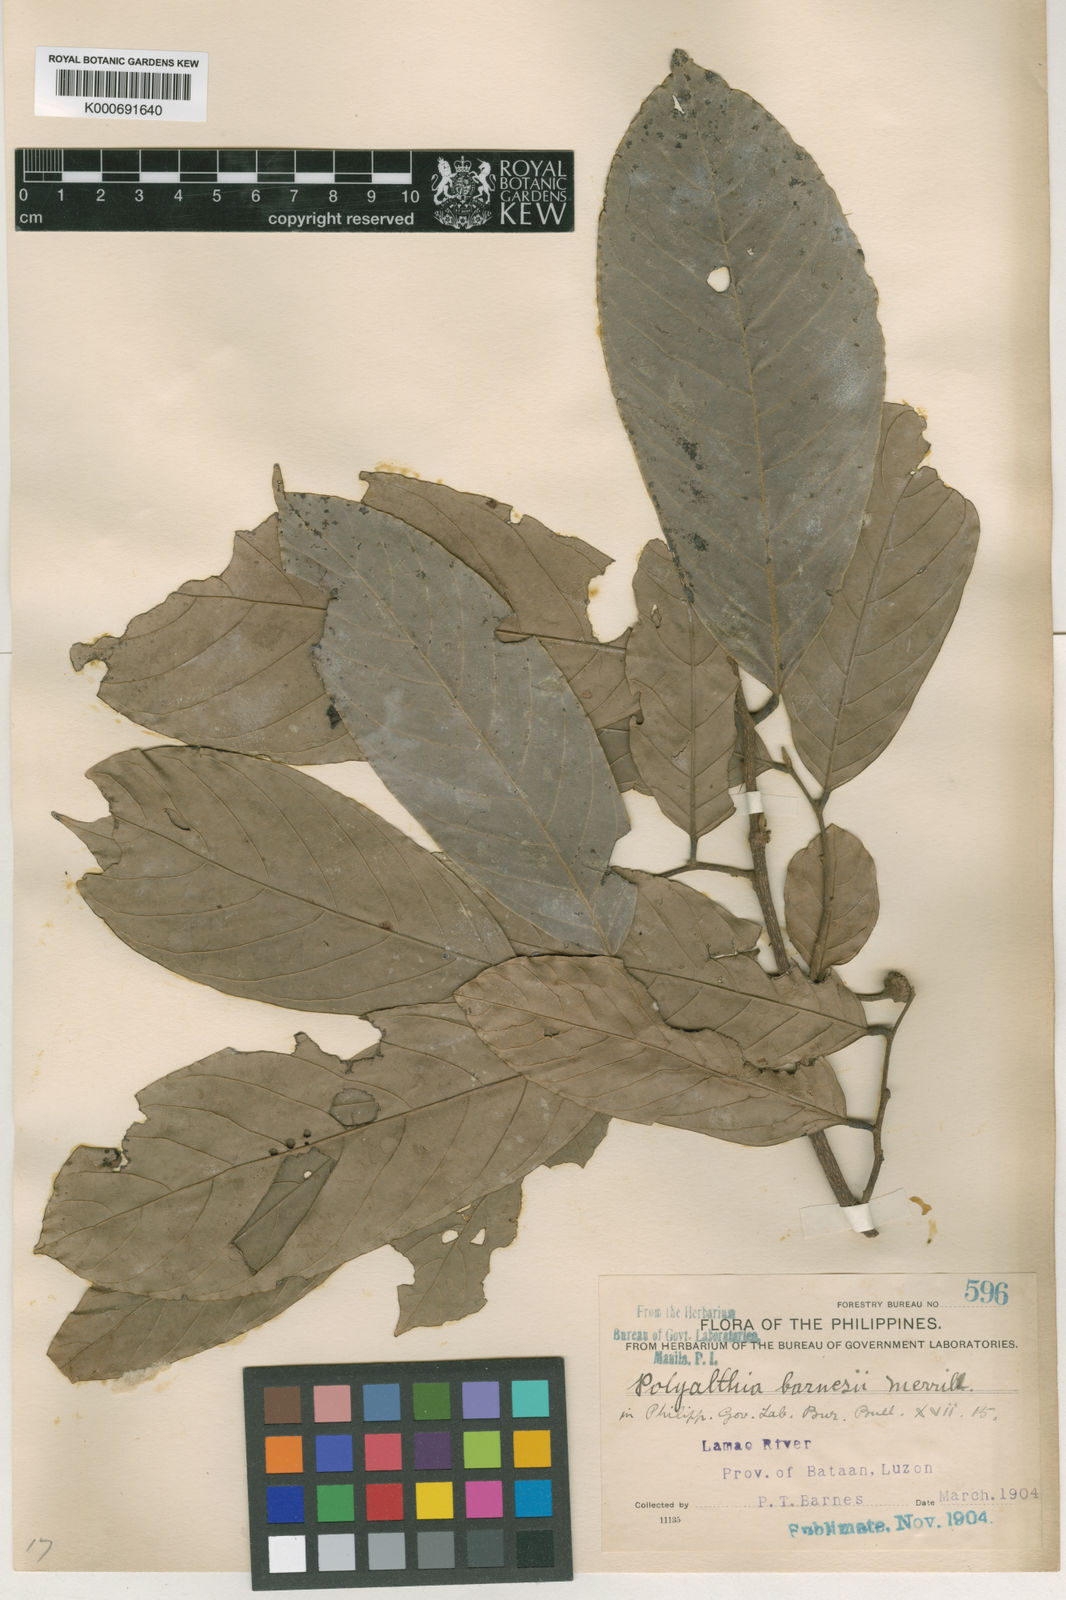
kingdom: Plantae
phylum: Tracheophyta
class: Magnoliopsida
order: Magnoliales
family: Annonaceae
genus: Polyalthia
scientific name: Polyalthia barnesii
